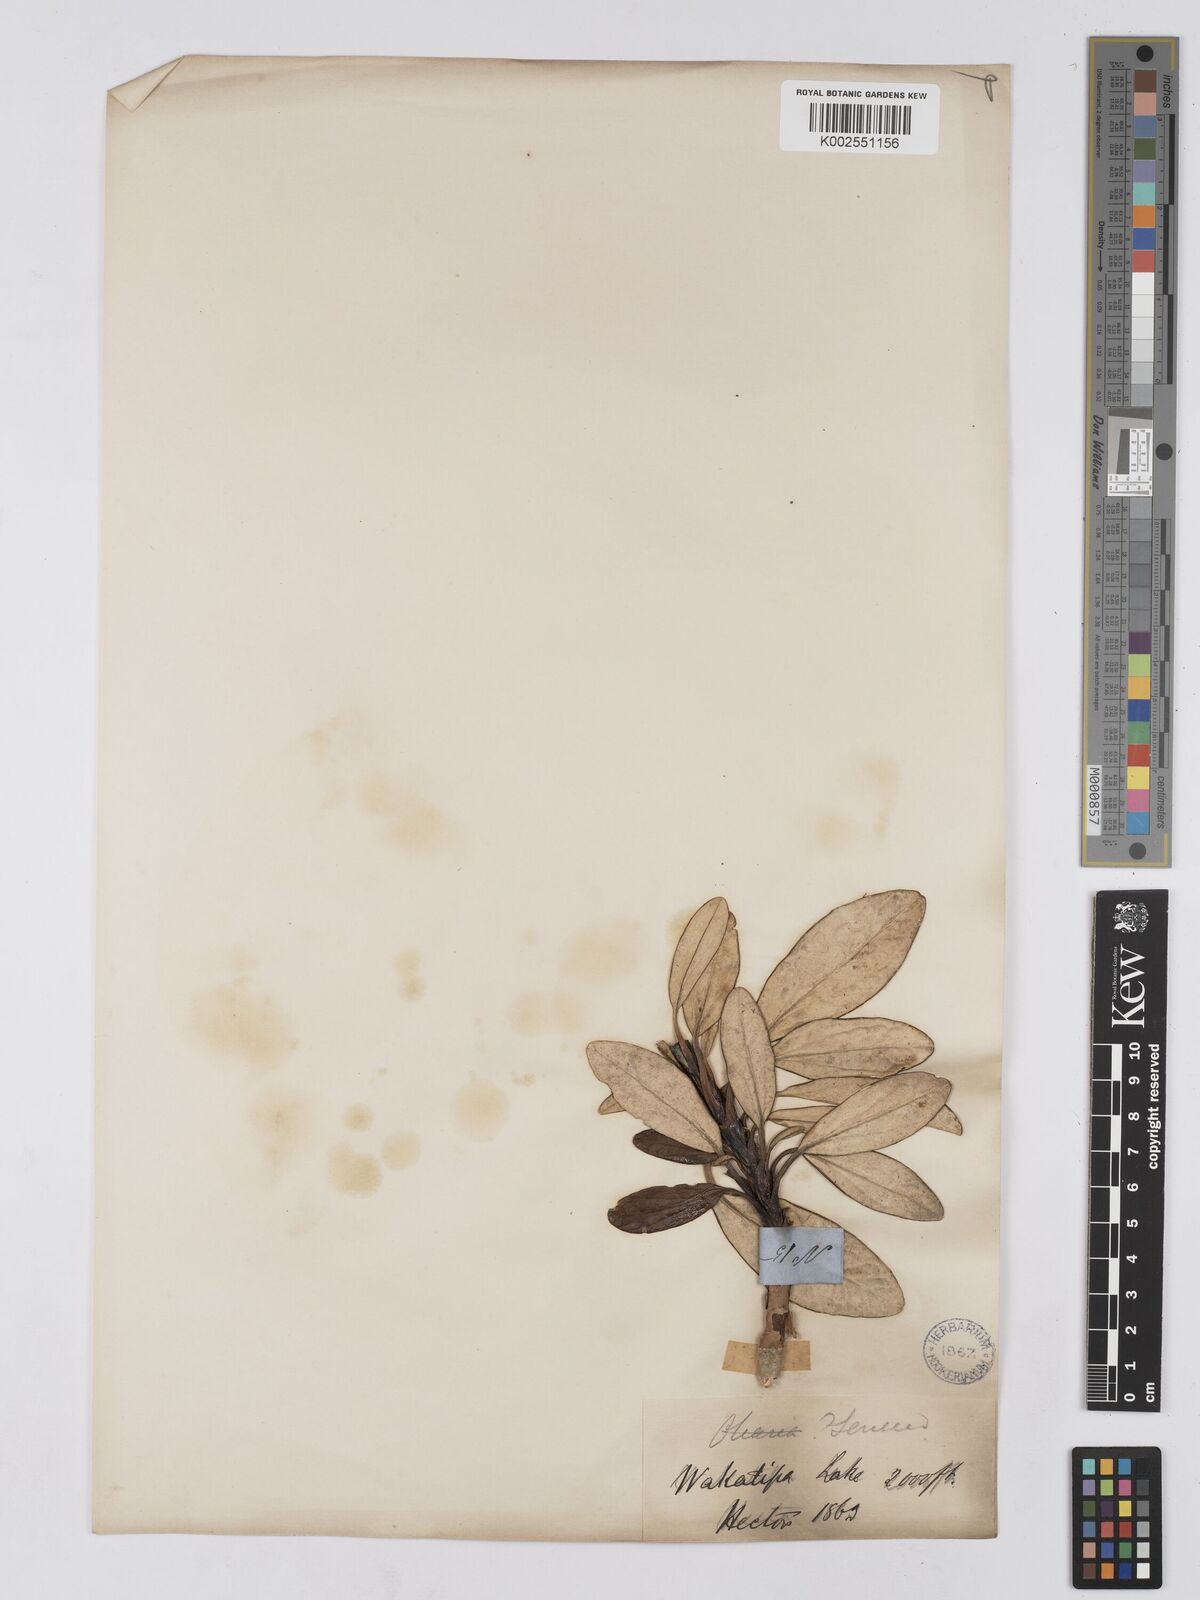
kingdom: Plantae
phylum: Tracheophyta
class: Magnoliopsida
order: Asterales
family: Asteraceae
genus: Brachyglottis
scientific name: Brachyglottis
